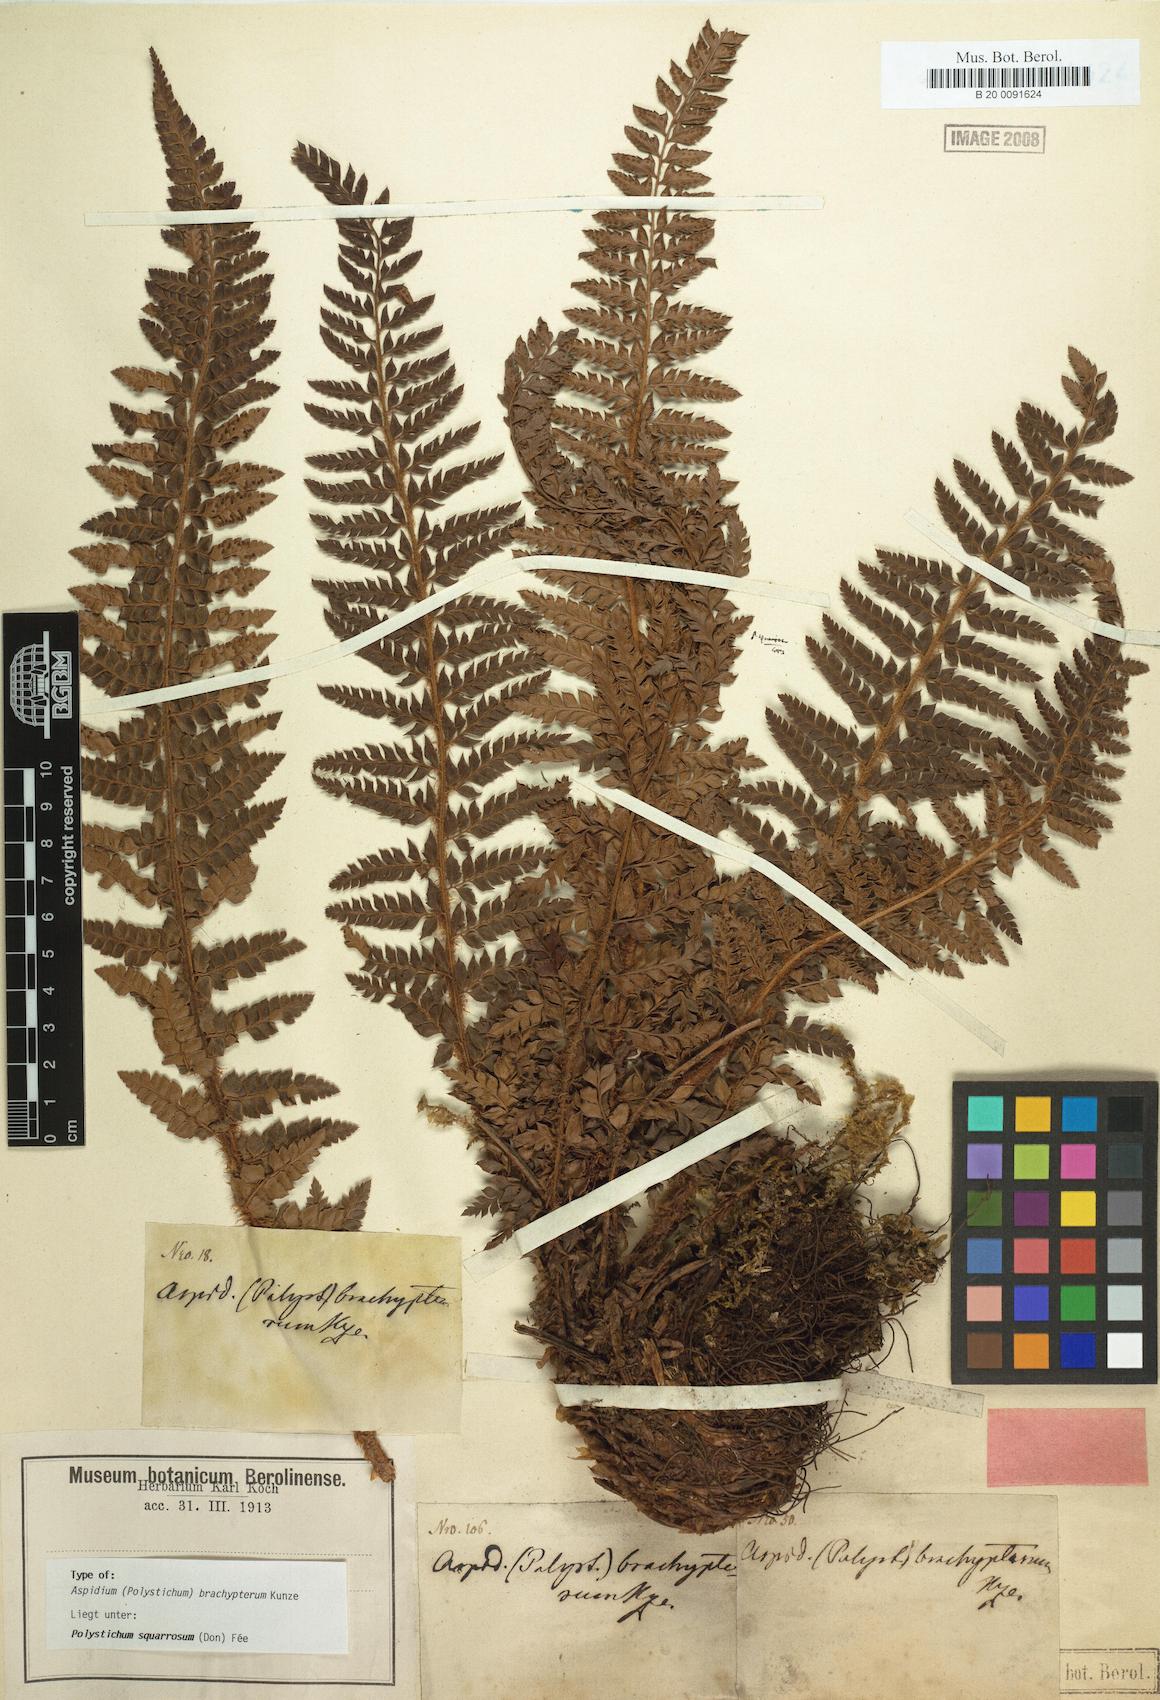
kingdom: Plantae
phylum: Tracheophyta
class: Polypodiopsida
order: Polypodiales
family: Dryopteridaceae
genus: Polystichum
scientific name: Polystichum squarrosum
